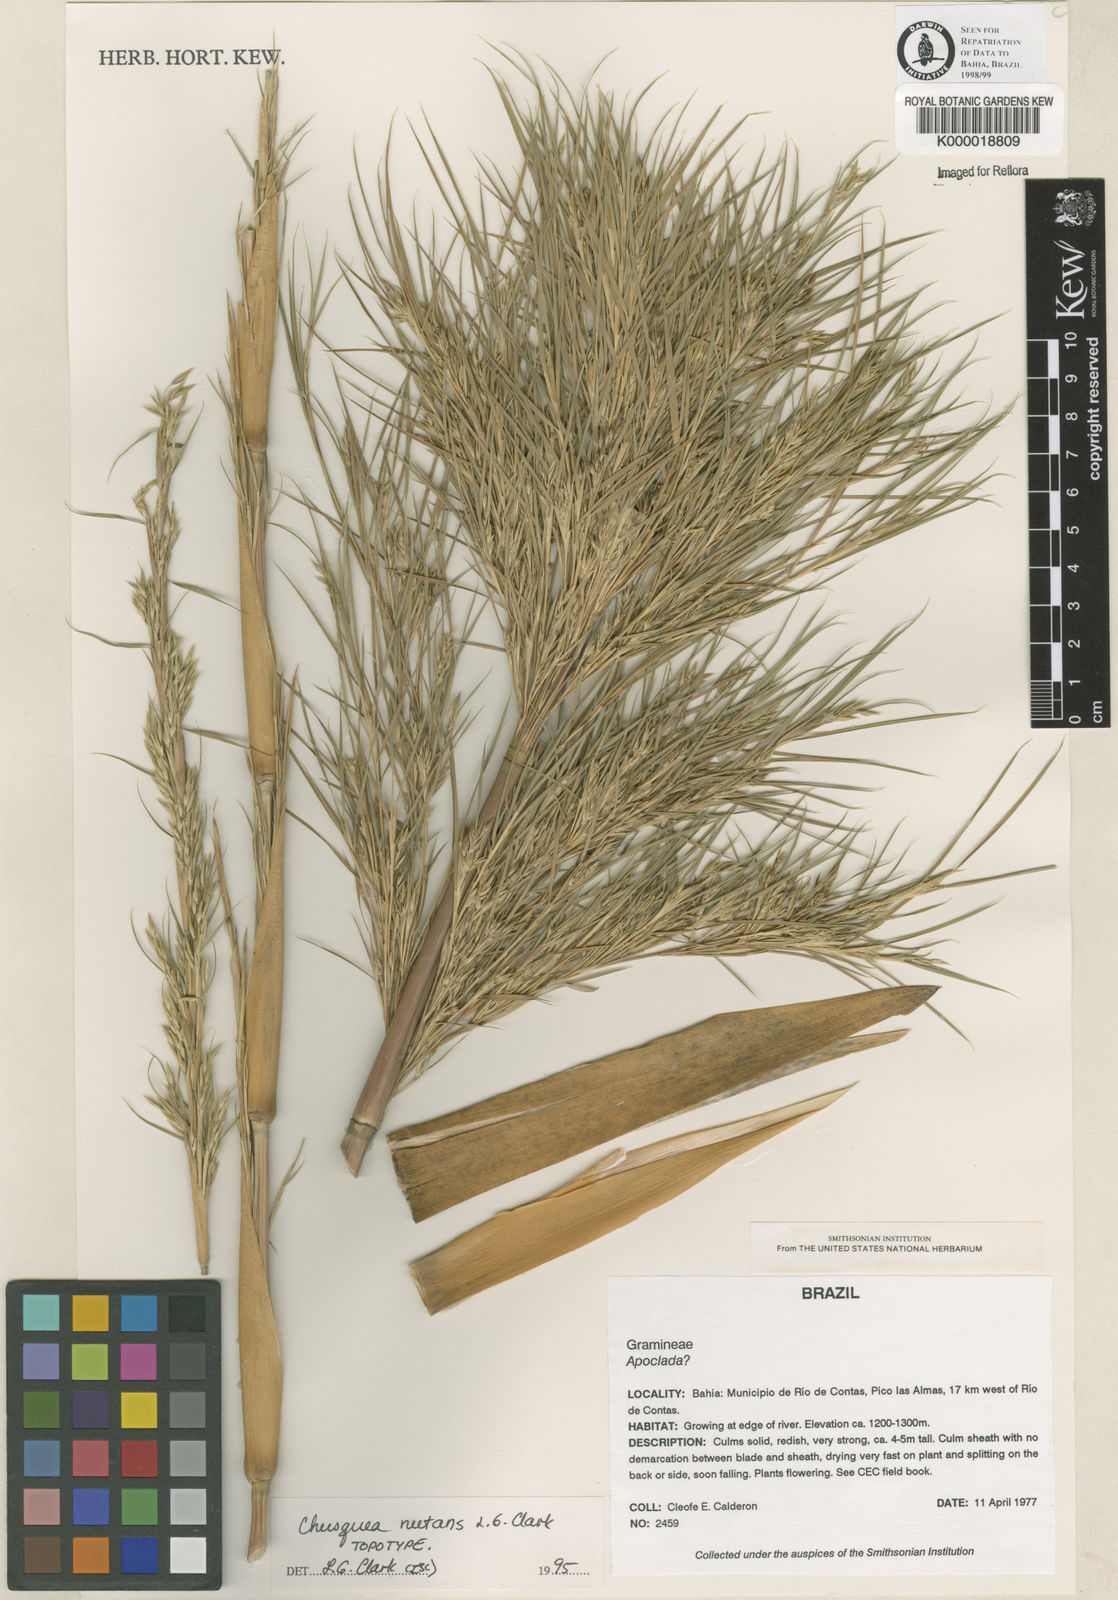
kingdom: Plantae
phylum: Tracheophyta
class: Liliopsida
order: Poales
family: Poaceae
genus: Chusquea
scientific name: Chusquea nutans
